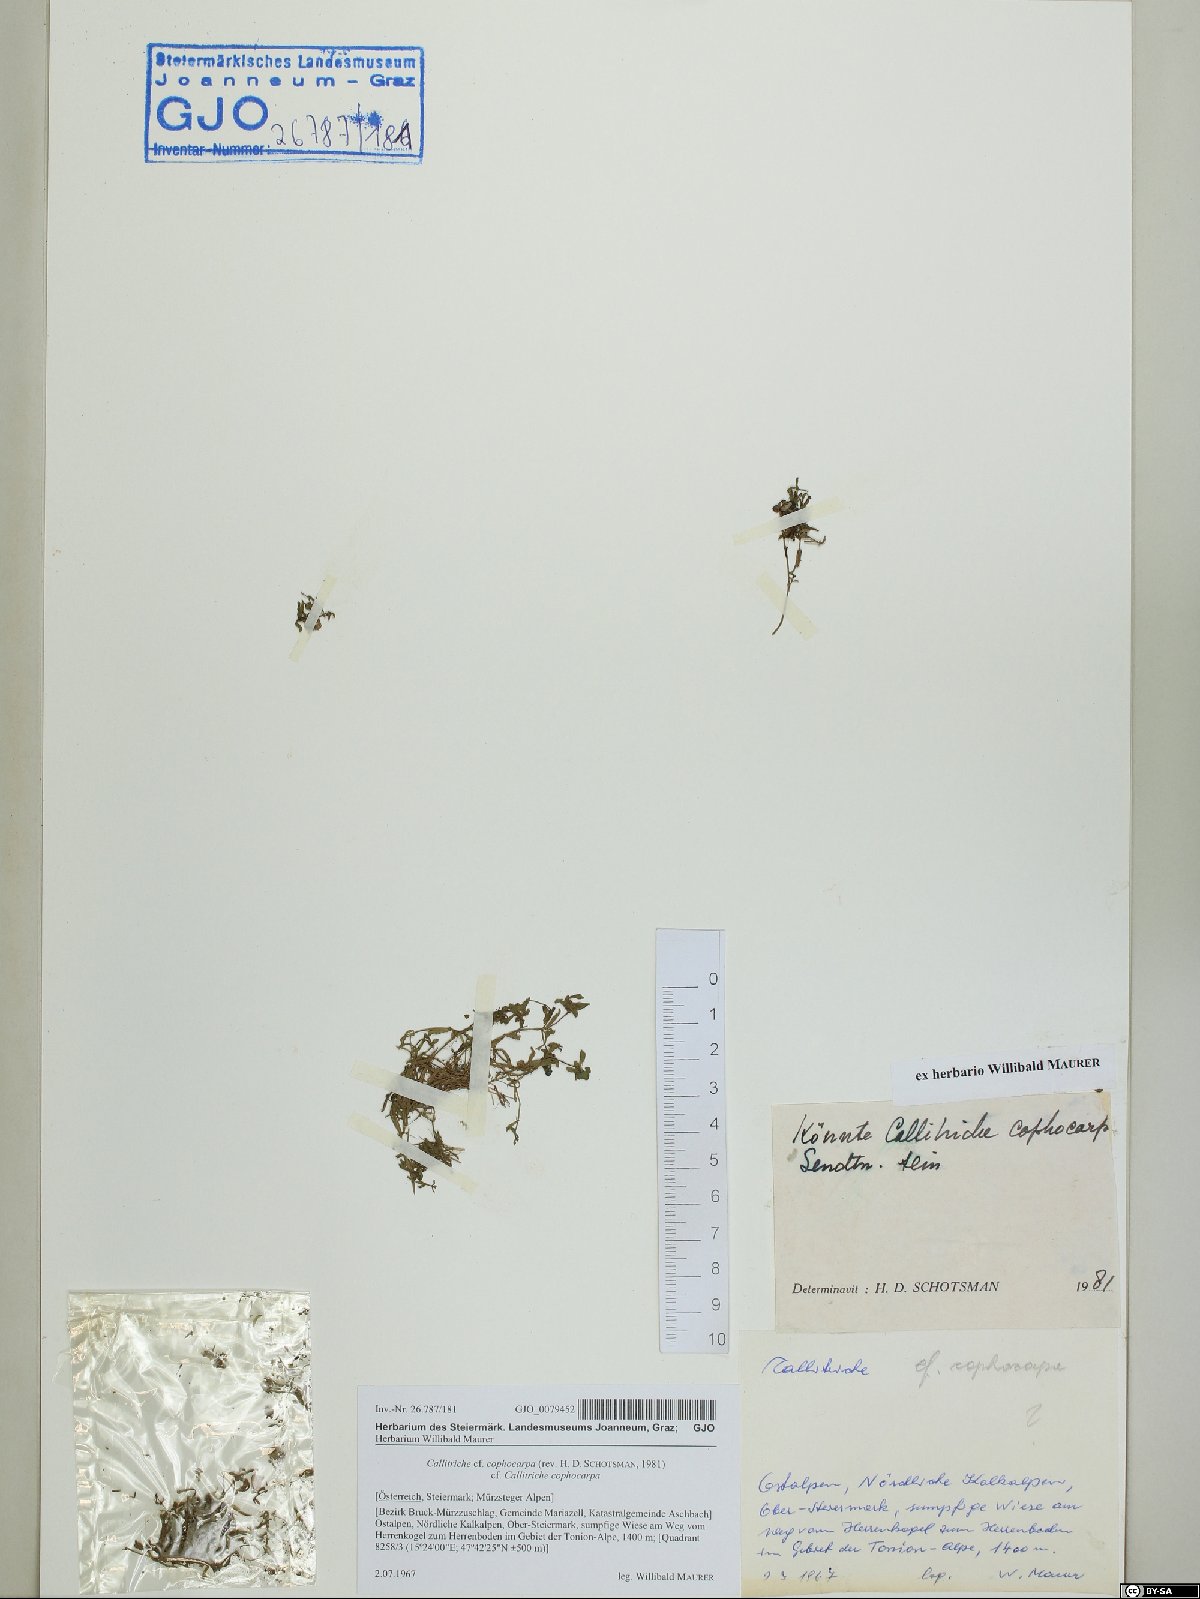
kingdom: Plantae
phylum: Tracheophyta
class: Magnoliopsida
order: Lamiales
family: Plantaginaceae
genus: Callitriche
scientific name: Callitriche cophocarpa
